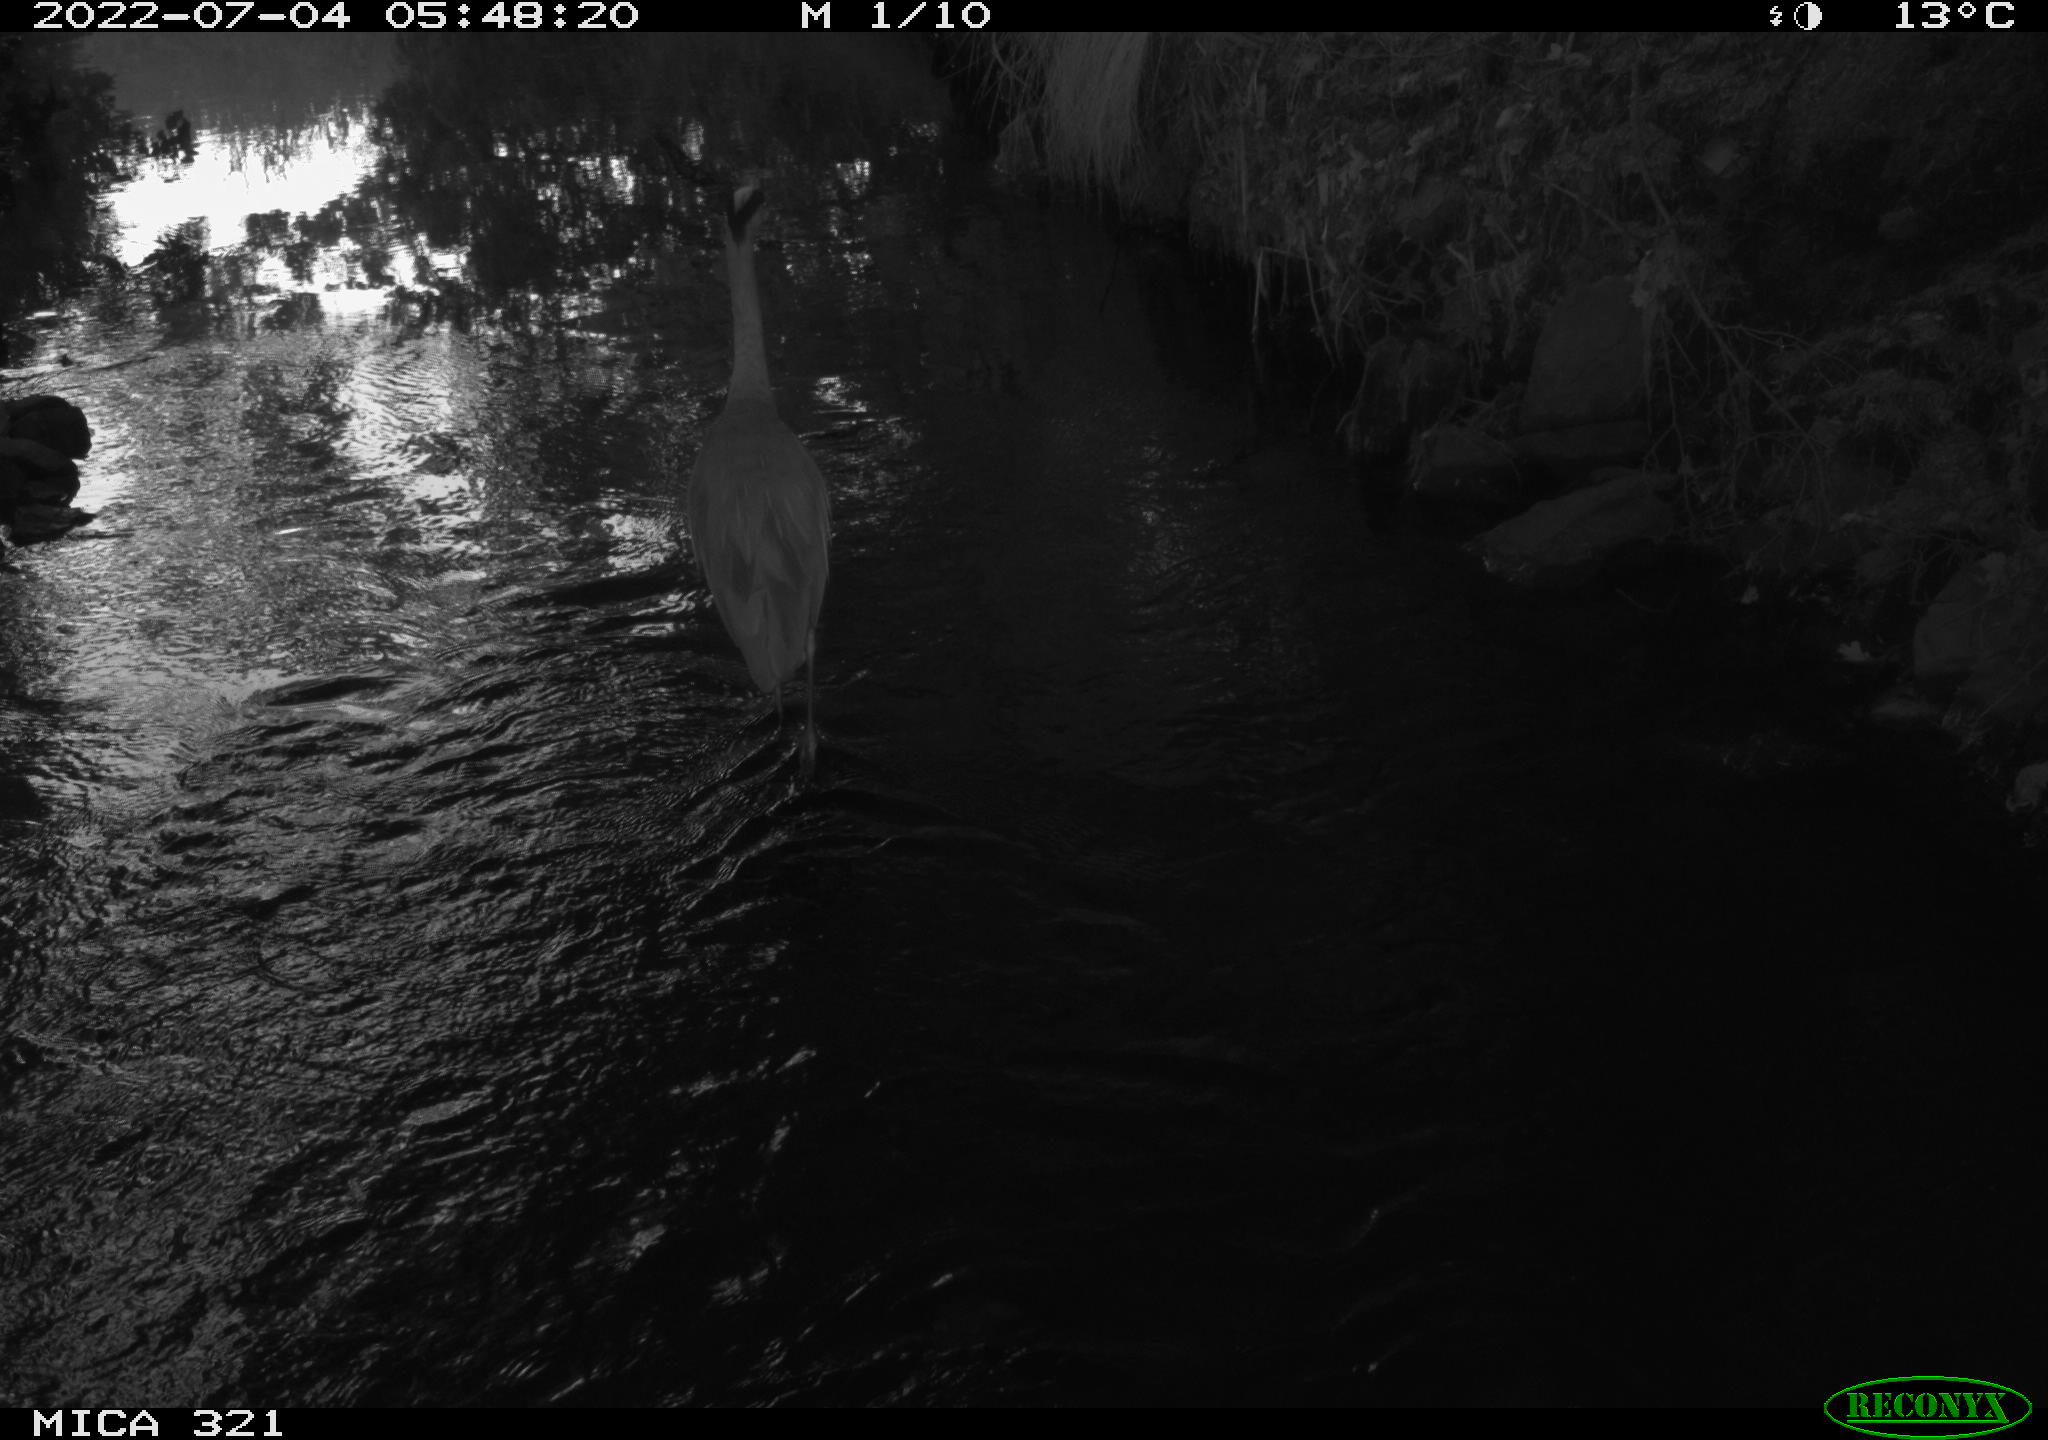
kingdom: Animalia
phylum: Chordata
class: Aves
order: Pelecaniformes
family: Ardeidae
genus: Ardea
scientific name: Ardea cinerea
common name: Grey heron
